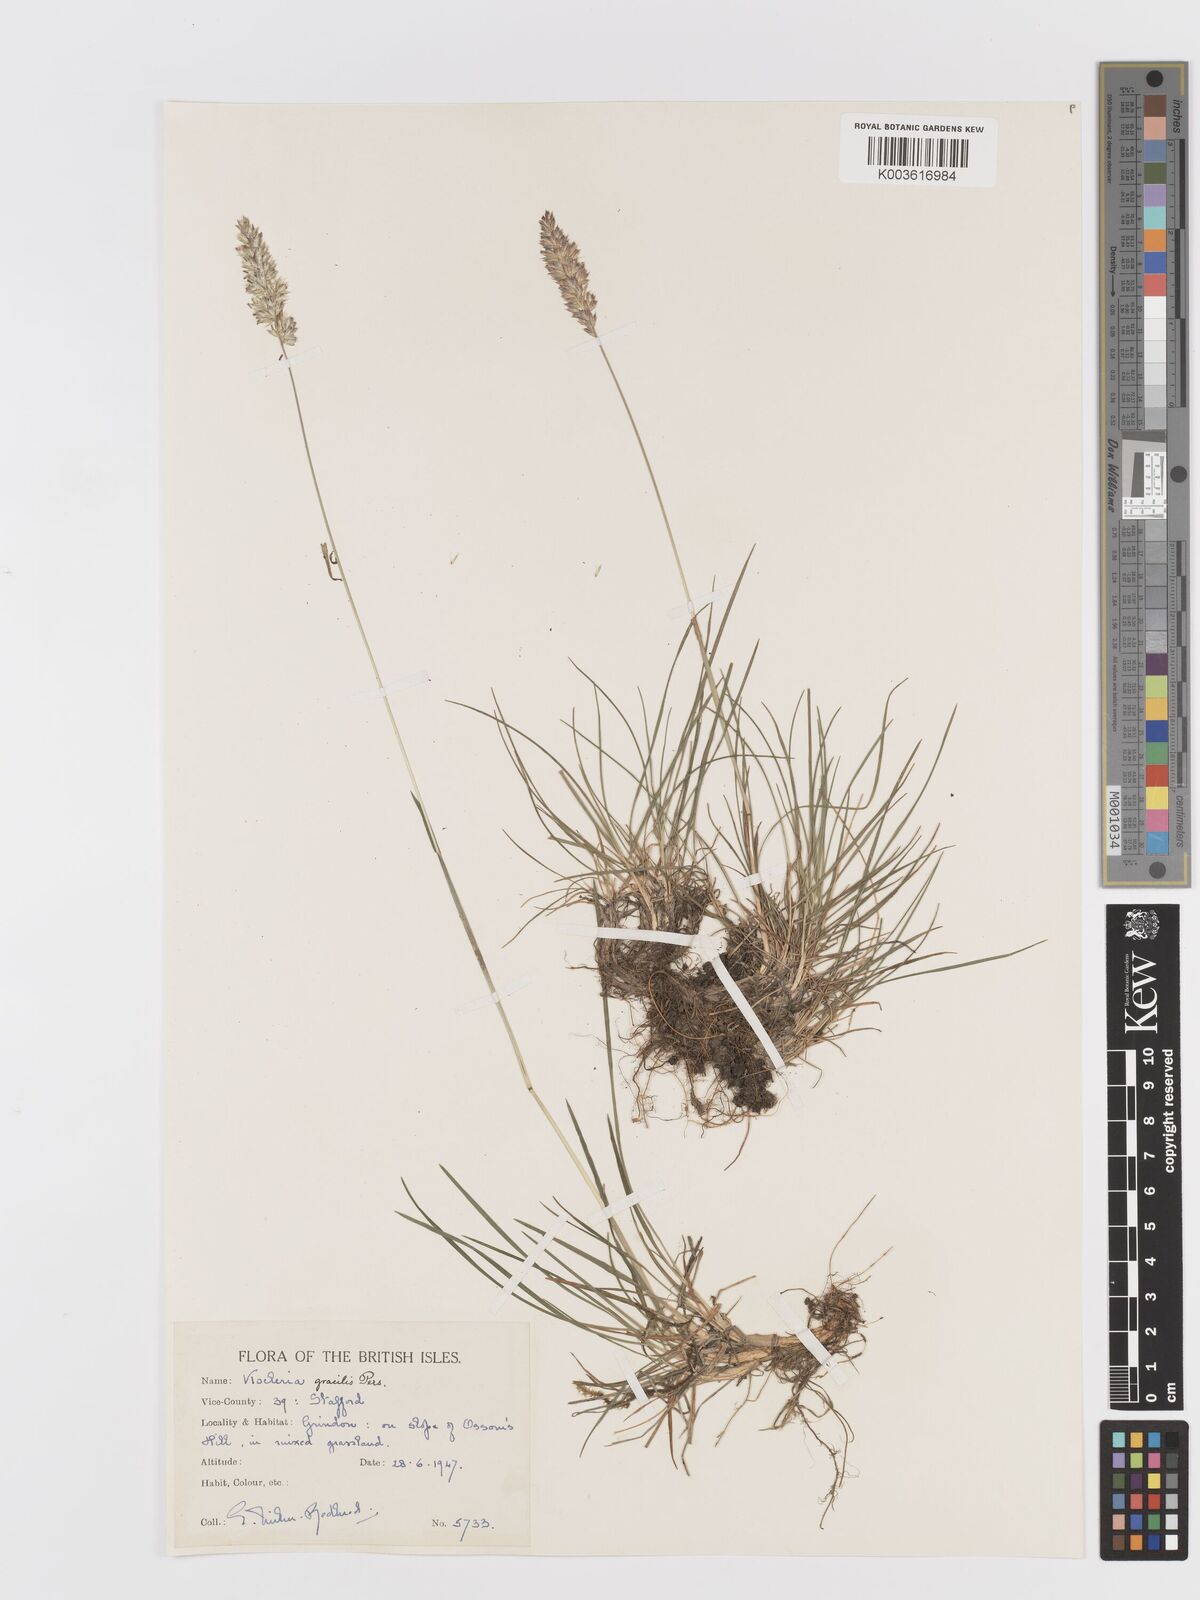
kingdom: Plantae
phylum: Tracheophyta
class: Liliopsida
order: Poales
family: Poaceae
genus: Koeleria
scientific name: Koeleria macrantha
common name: Crested hair-grass
